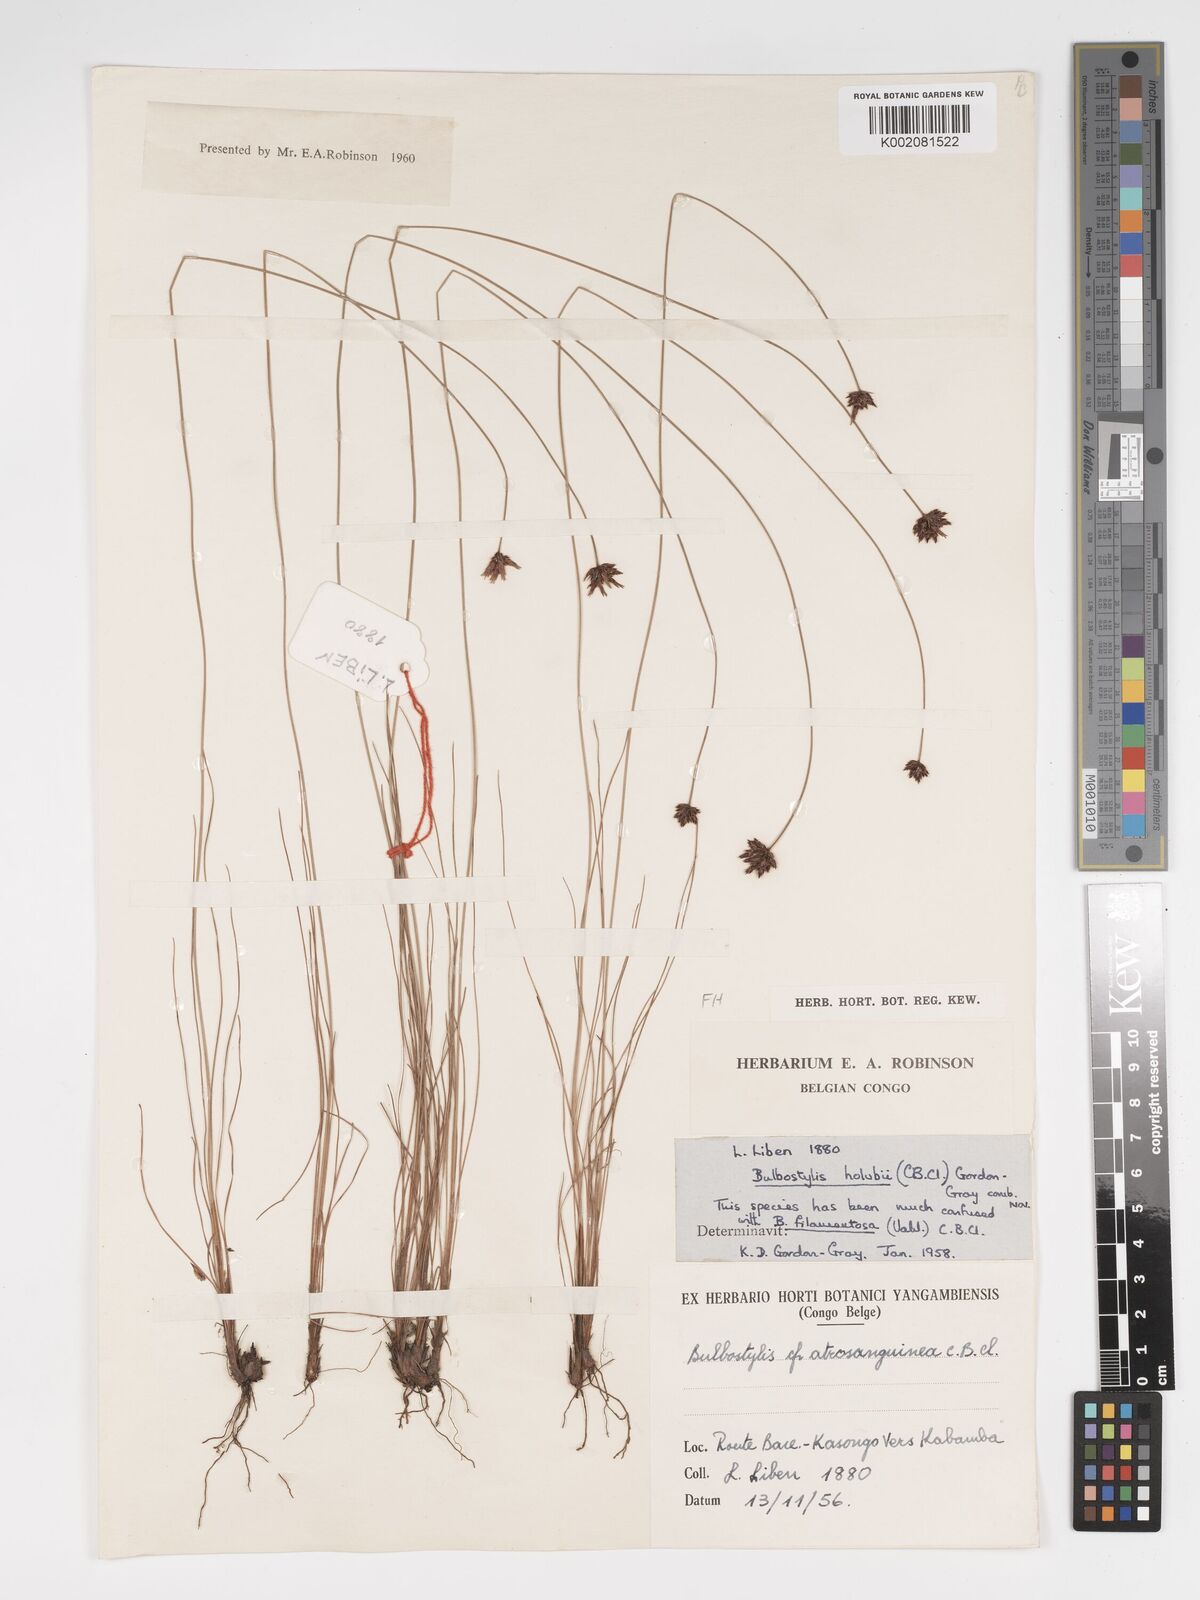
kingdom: Plantae
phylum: Tracheophyta
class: Liliopsida
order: Poales
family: Cyperaceae
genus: Bulbostylis
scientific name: Bulbostylis scabricaulis
